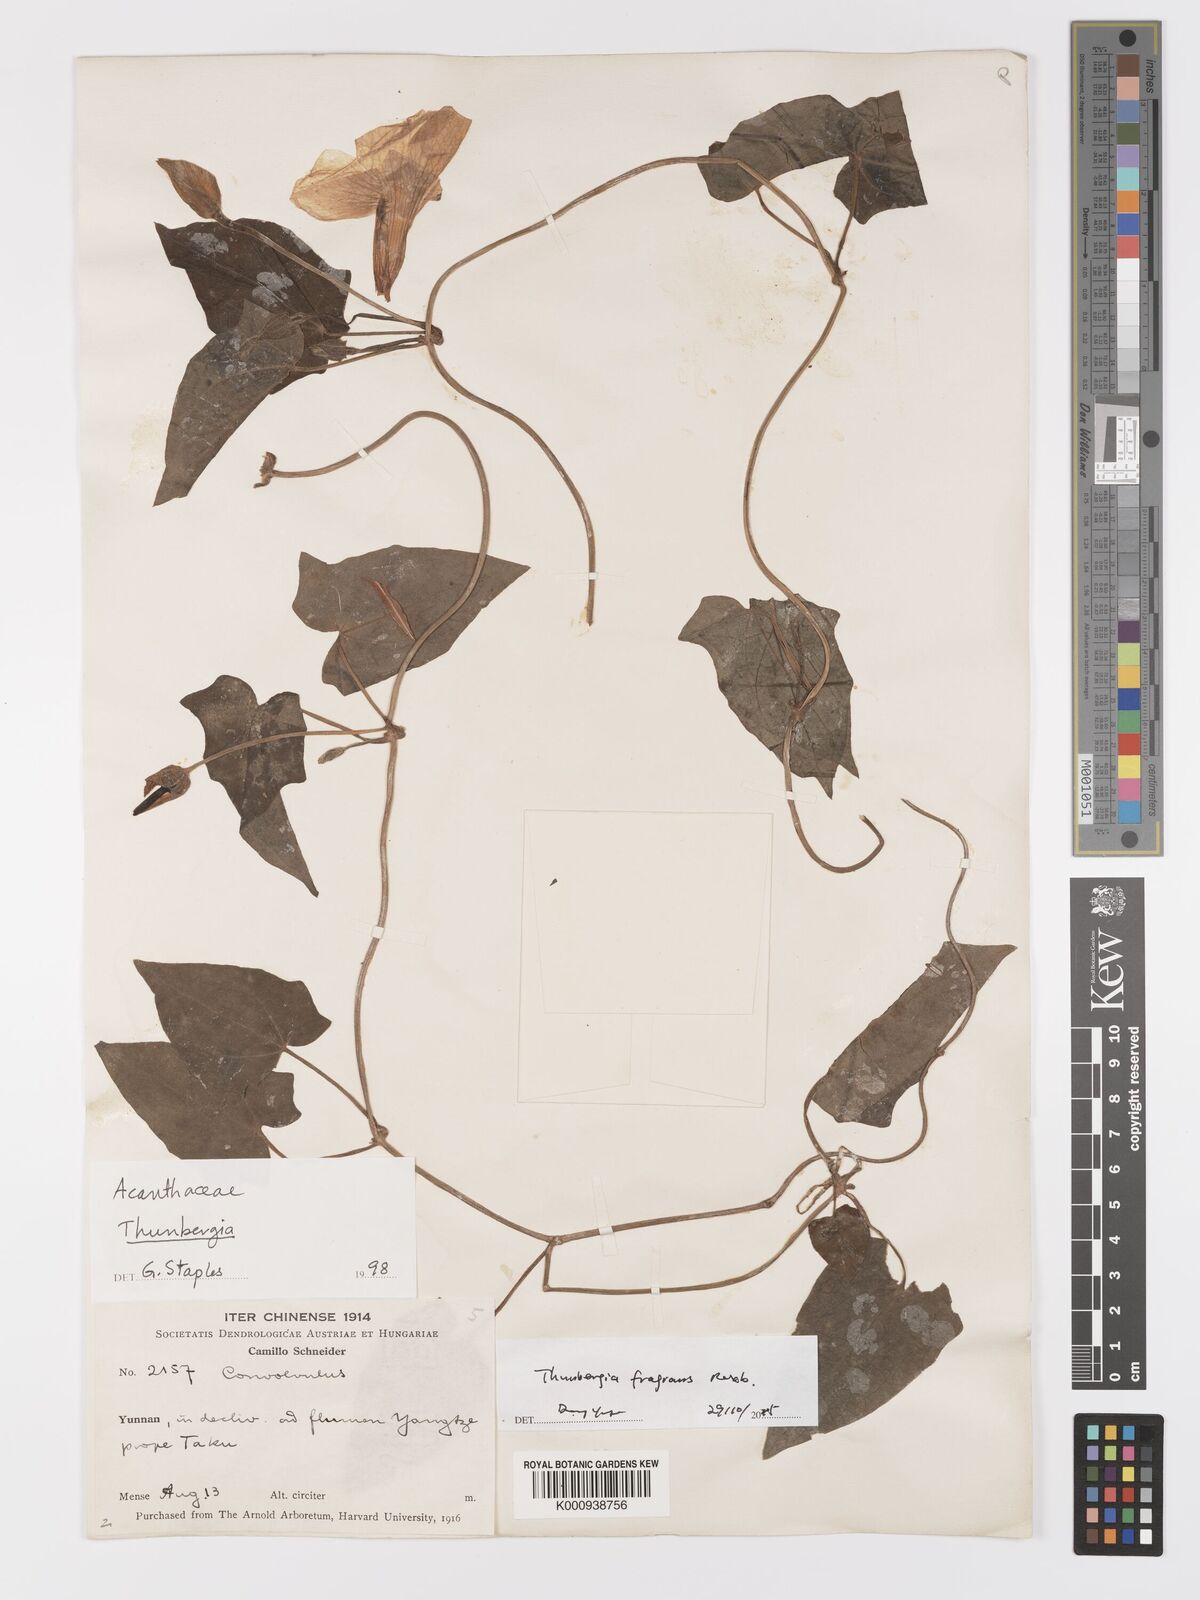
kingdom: Plantae
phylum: Tracheophyta
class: Magnoliopsida
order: Lamiales
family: Acanthaceae
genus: Thunbergia
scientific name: Thunbergia fragrans
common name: Whitelady
